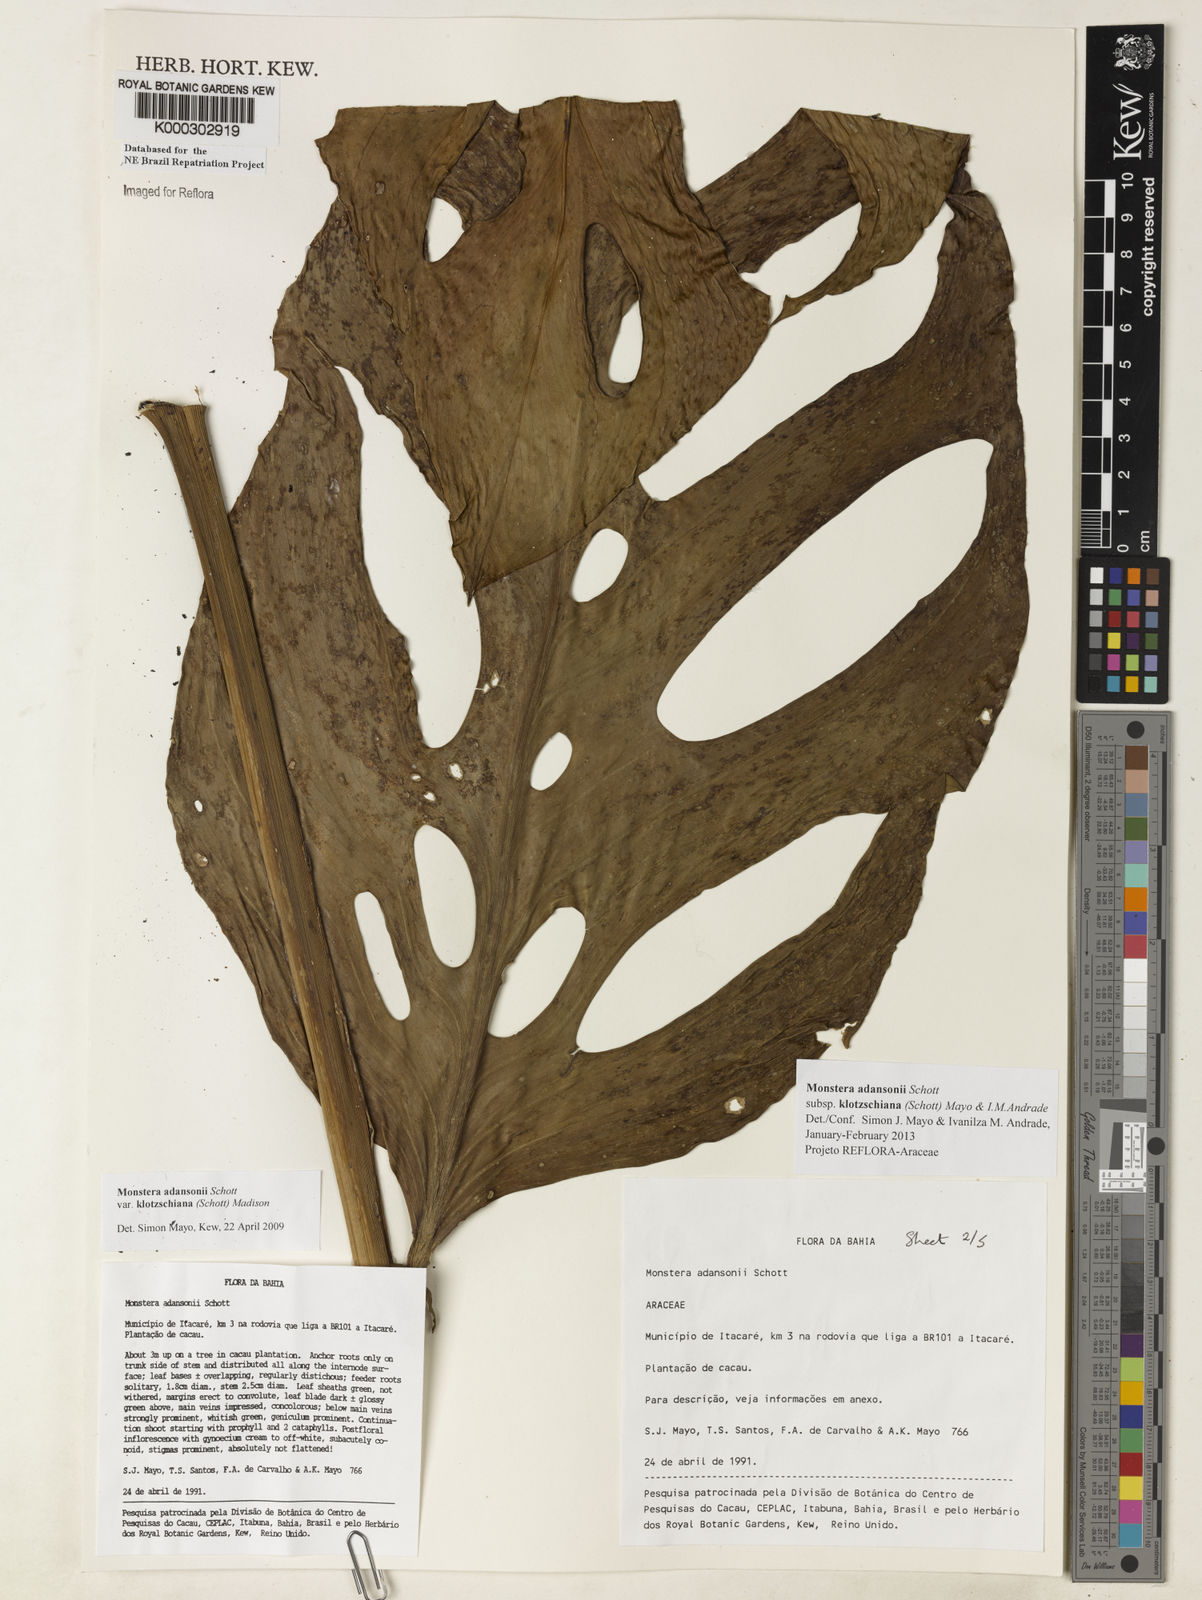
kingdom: Plantae
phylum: Tracheophyta
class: Liliopsida
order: Alismatales
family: Araceae
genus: Monstera
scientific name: Monstera adansonii
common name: Tarovine
